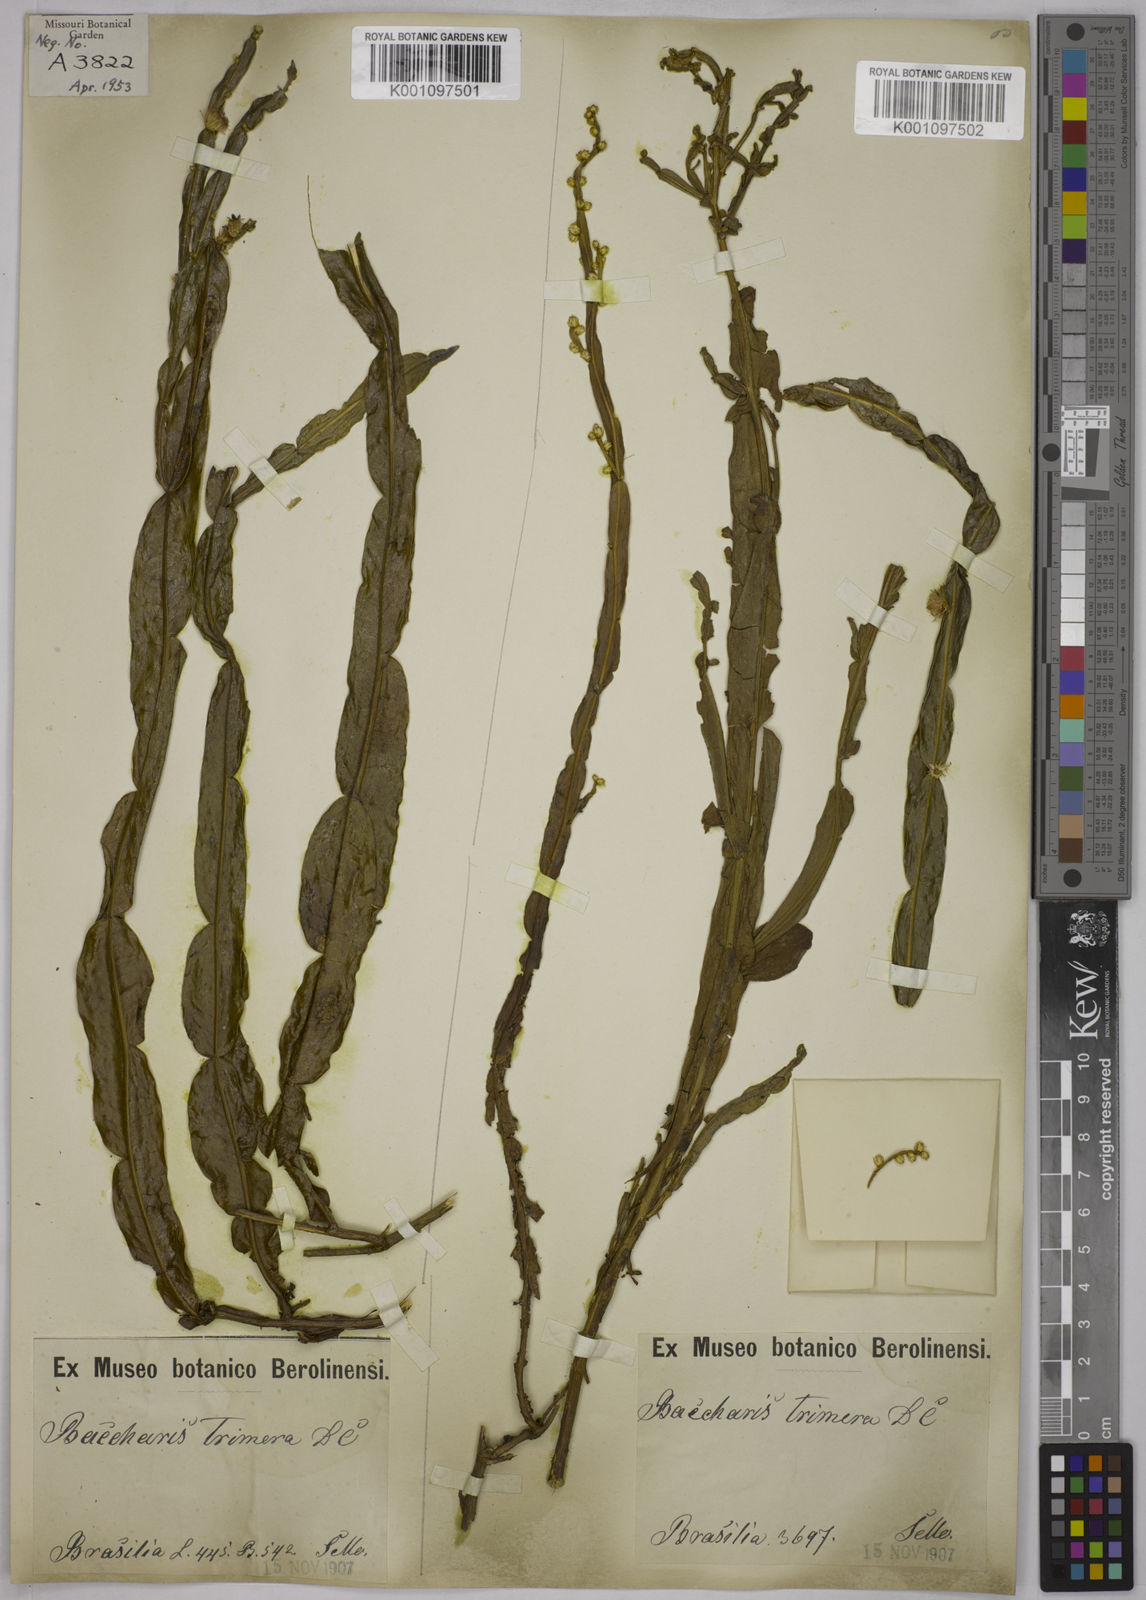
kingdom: Plantae
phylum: Tracheophyta
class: Magnoliopsida
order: Asterales
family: Asteraceae
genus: Baccharis
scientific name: Baccharis genistelloides
